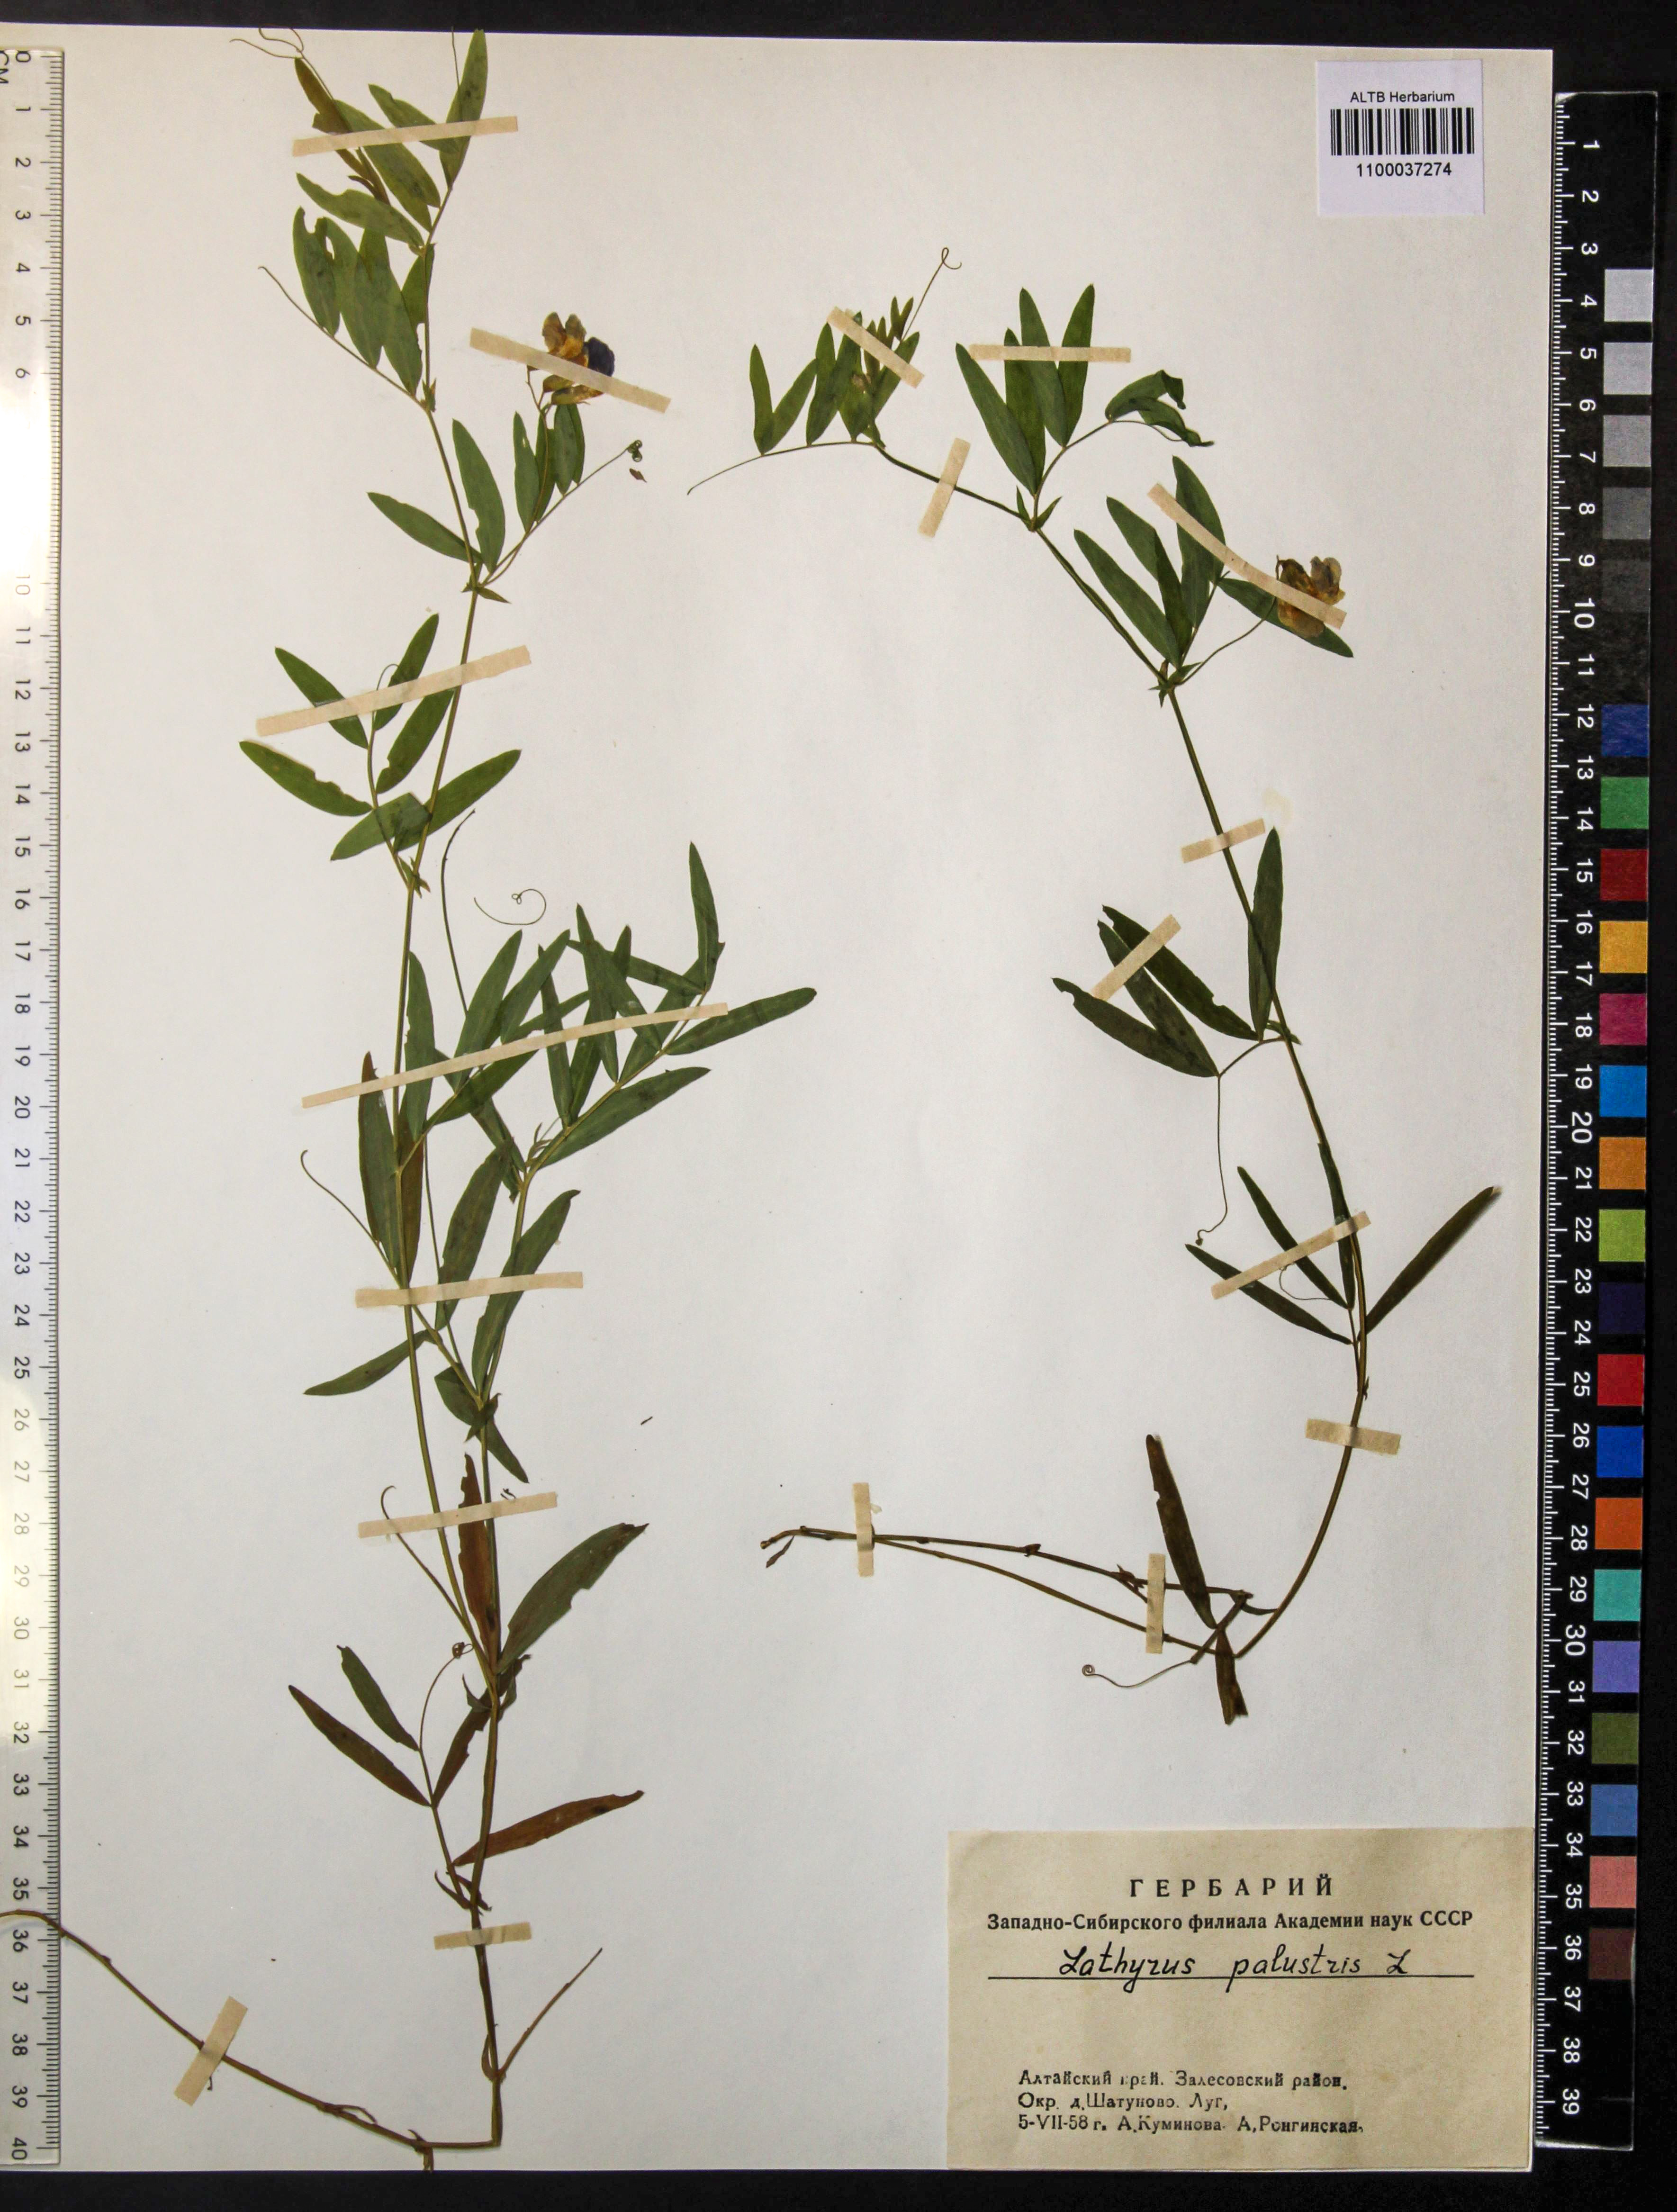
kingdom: Plantae
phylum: Tracheophyta
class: Magnoliopsida
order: Fabales
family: Fabaceae
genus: Lathyrus
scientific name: Lathyrus palustris
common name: Marsh pea
